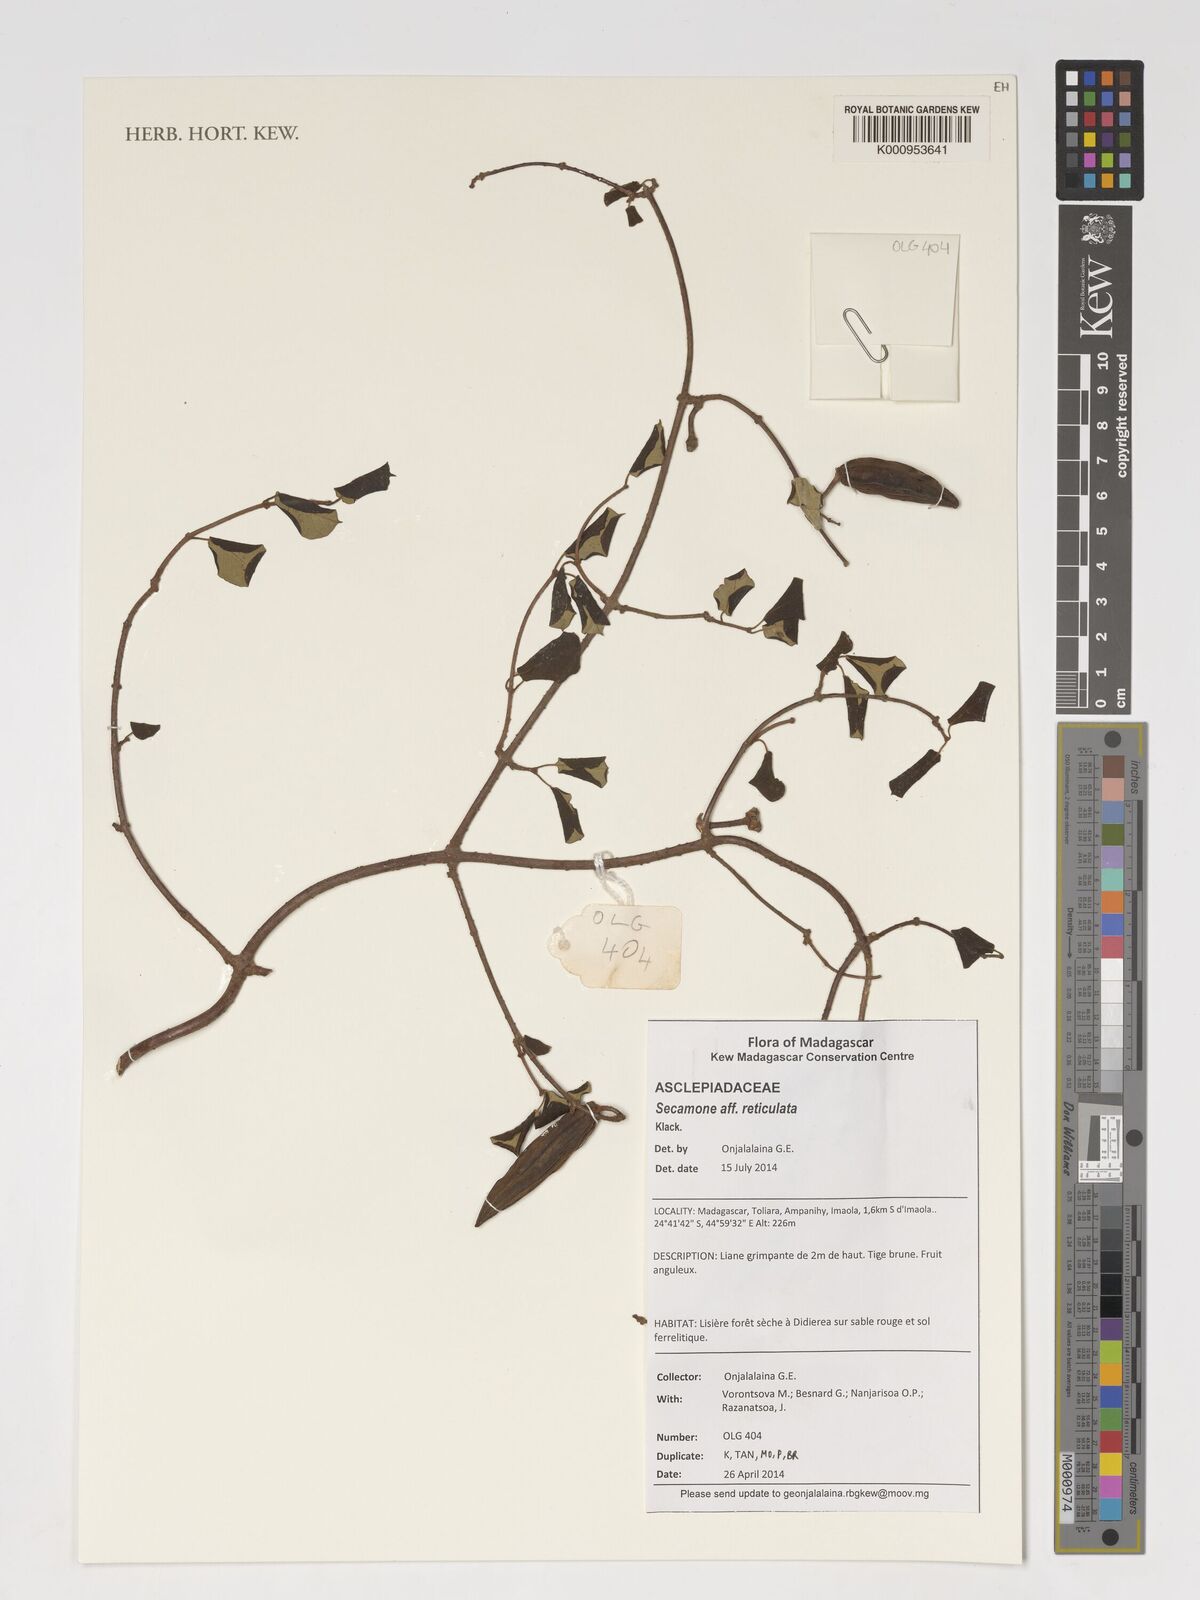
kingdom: Plantae
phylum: Tracheophyta
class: Magnoliopsida
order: Gentianales
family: Apocynaceae
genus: Secamone
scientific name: Secamone reticulata
